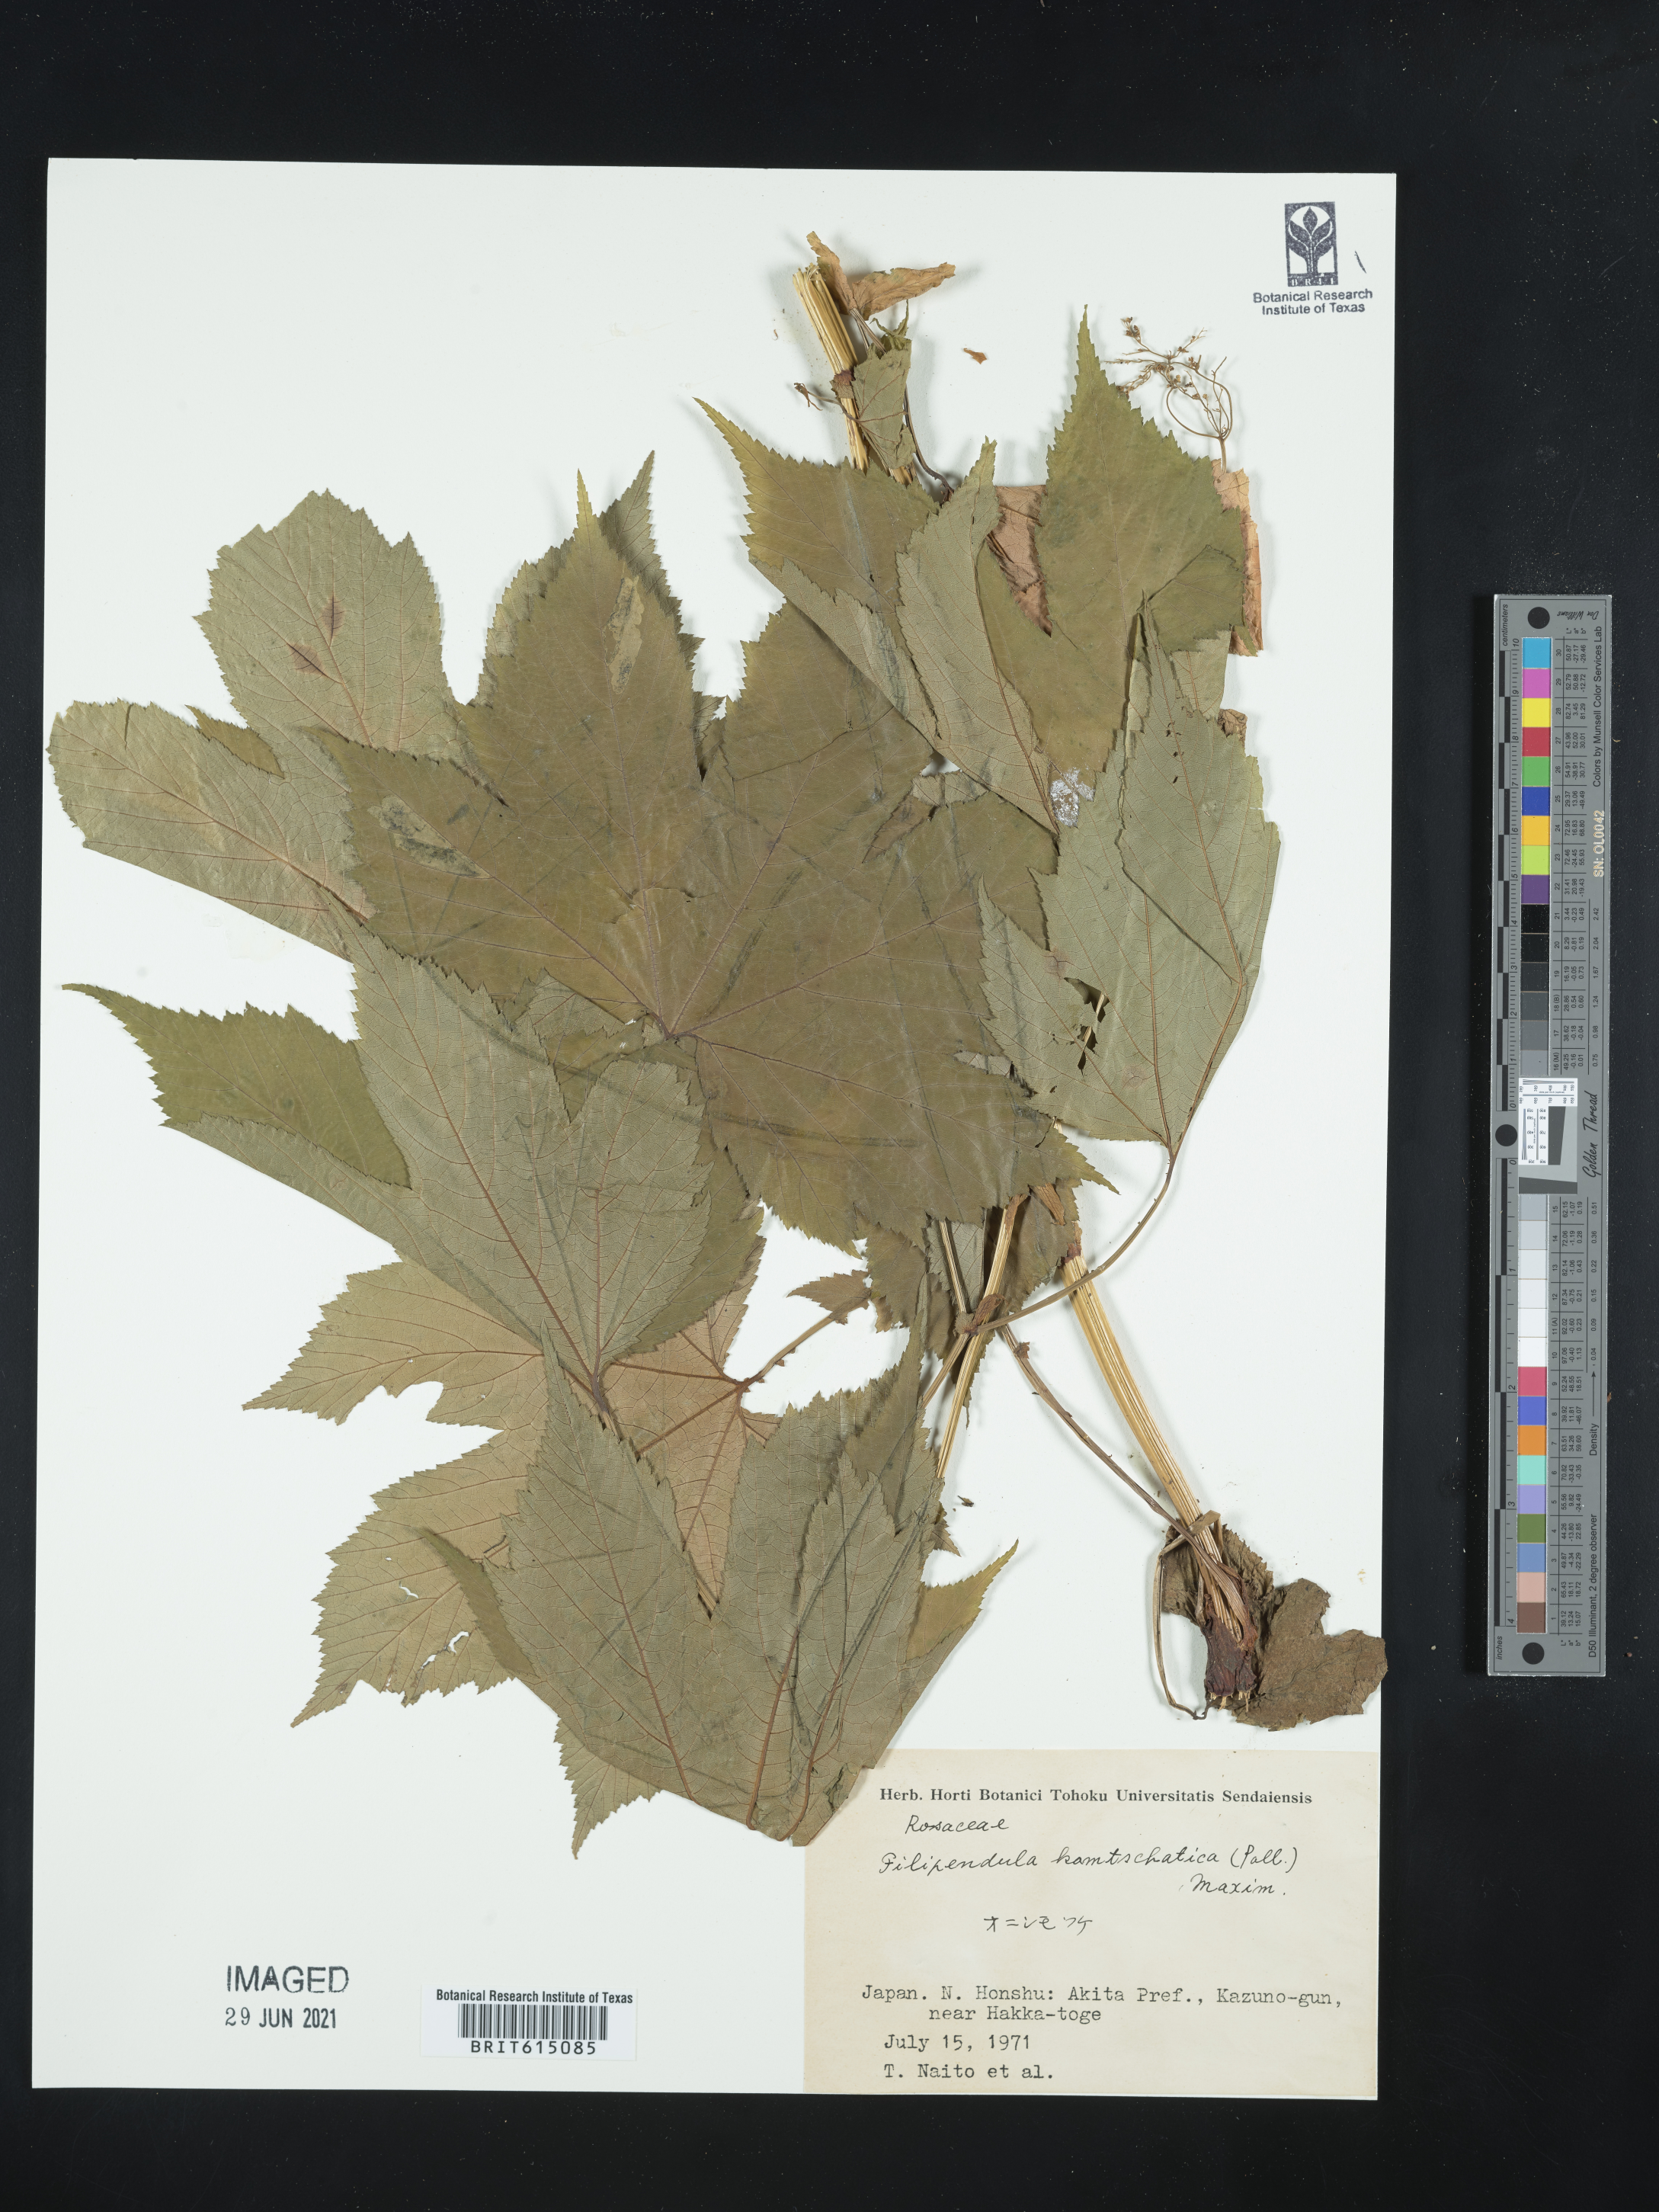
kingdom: Plantae
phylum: Tracheophyta
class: Magnoliopsida
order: Rosales
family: Rosaceae
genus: Filipendula
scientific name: Filipendula camtschatica
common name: Giant meadowsweet
